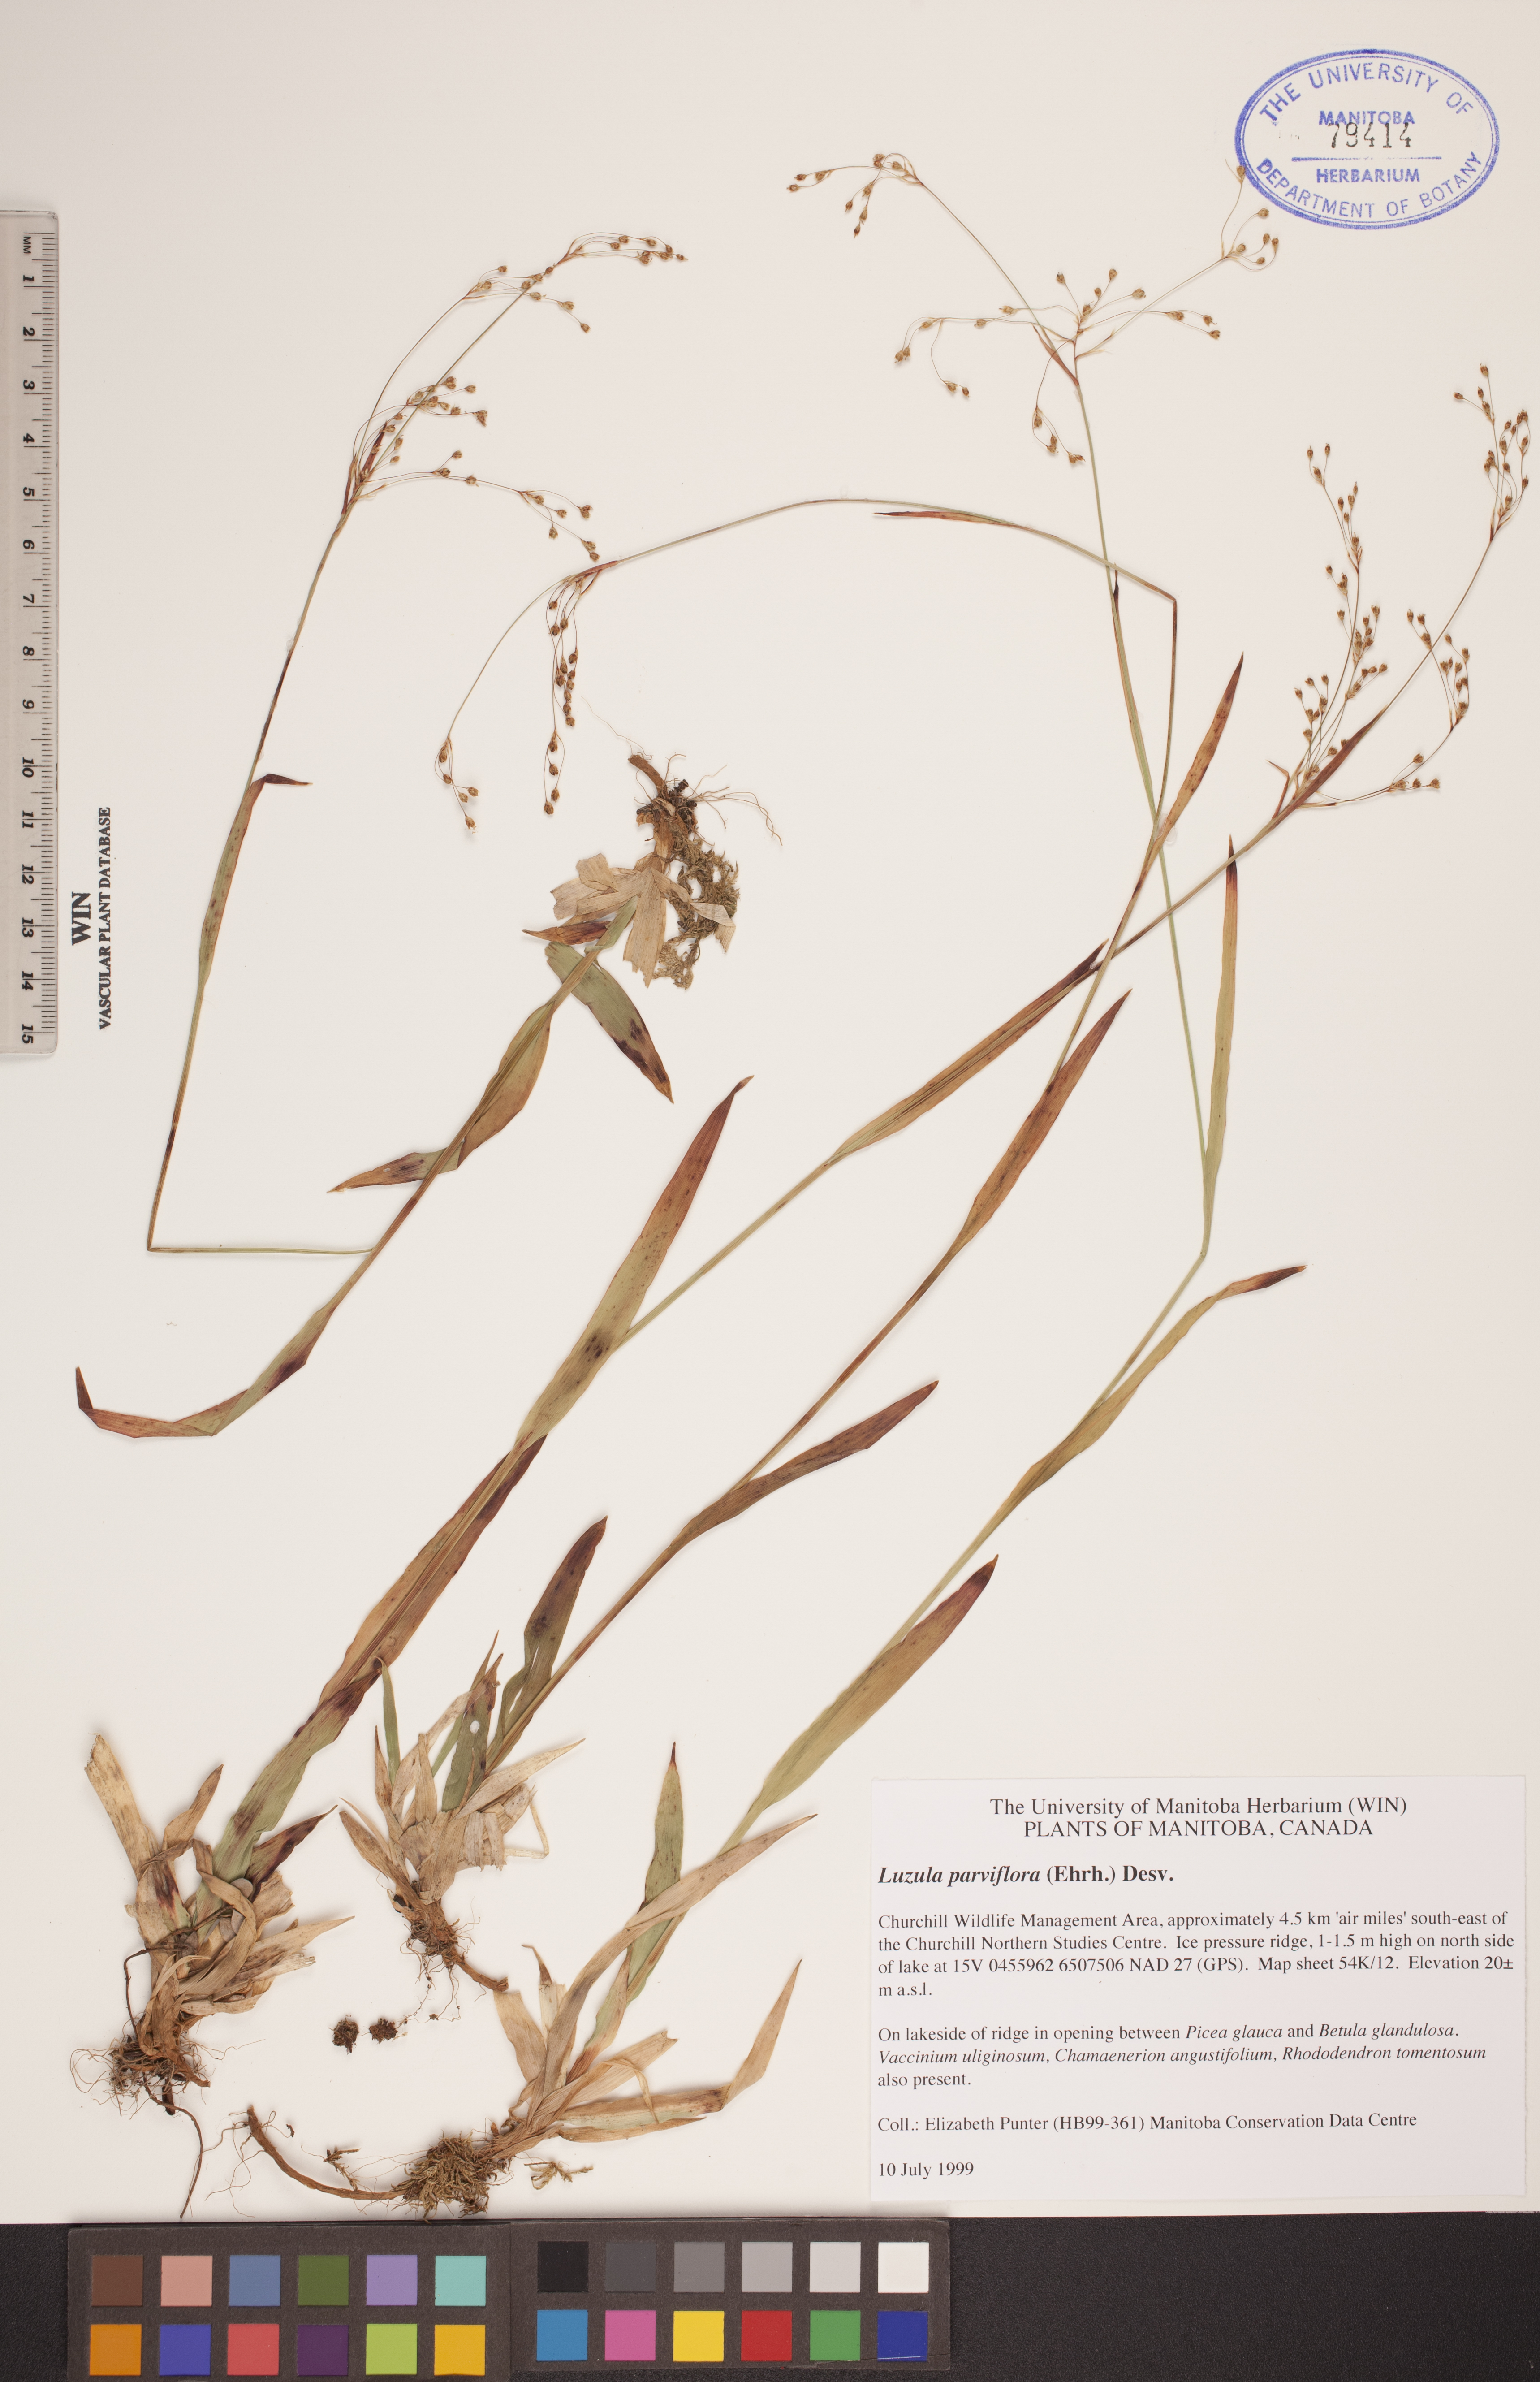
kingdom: Plantae
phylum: Tracheophyta
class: Liliopsida
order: Poales
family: Juncaceae
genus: Luzula
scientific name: Luzula parviflora
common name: Millet woodrush
